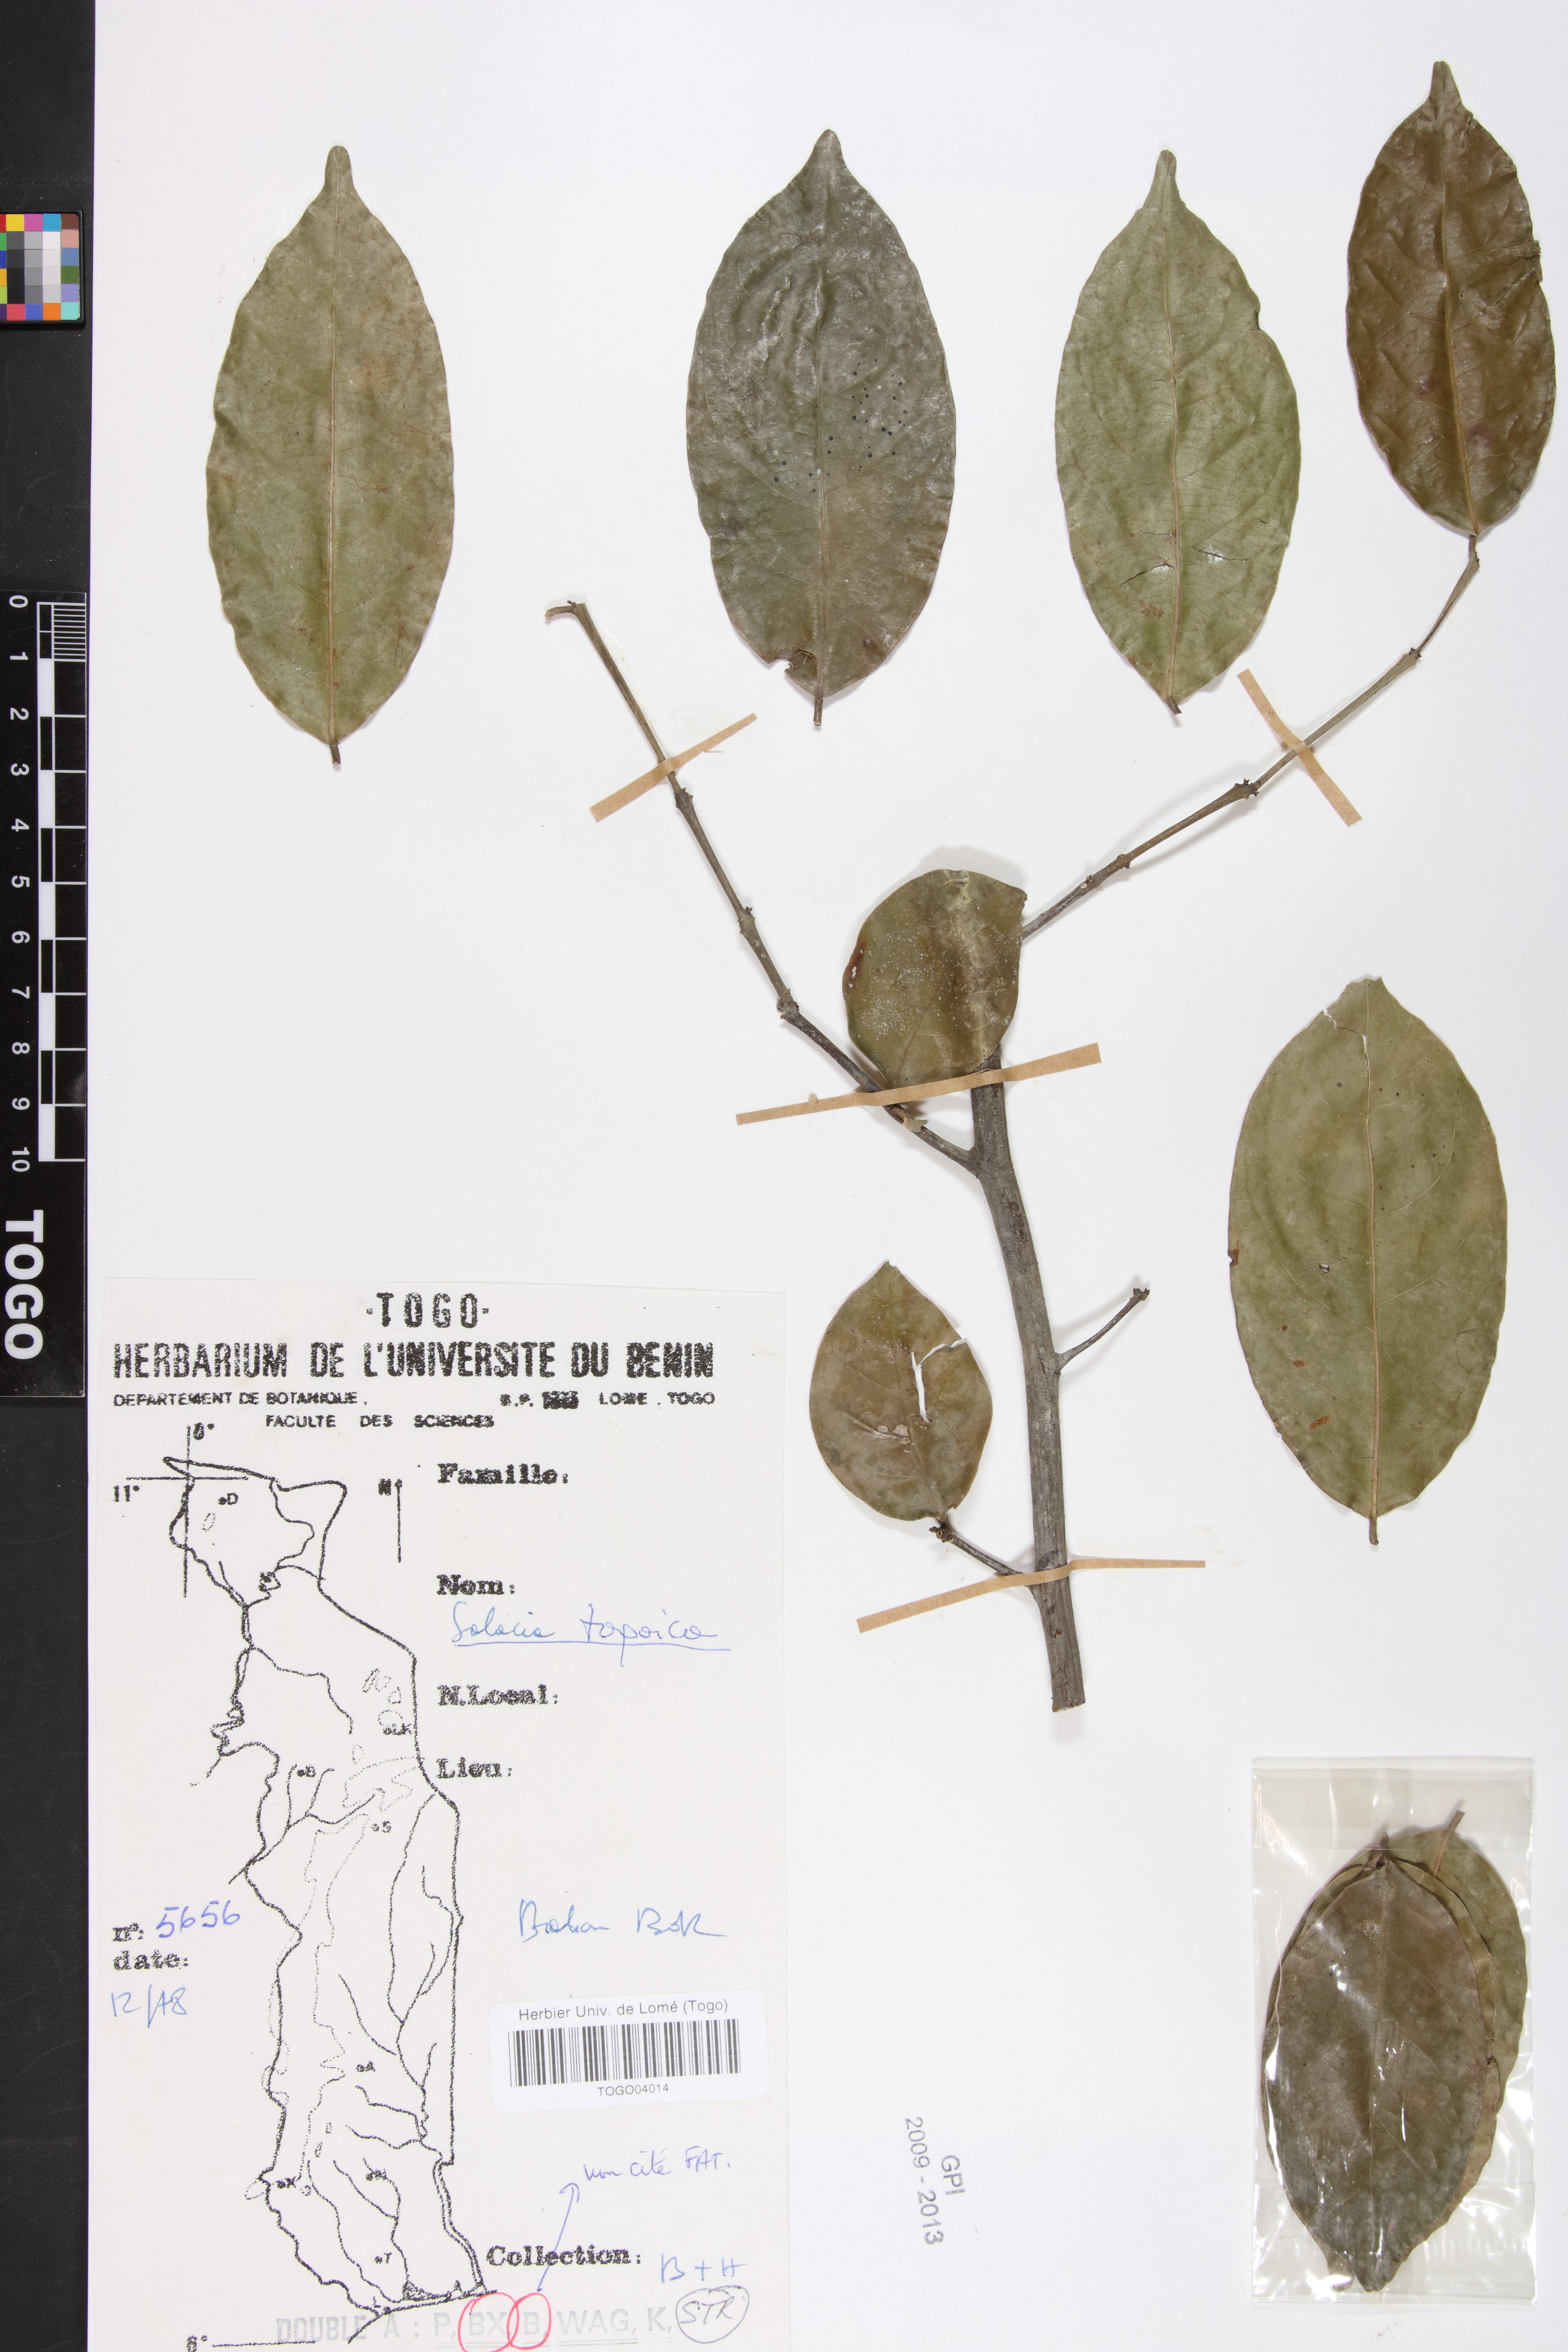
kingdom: Plantae
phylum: Tracheophyta
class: Magnoliopsida
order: Celastrales
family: Celastraceae
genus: Salacia
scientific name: Salacia togoica
